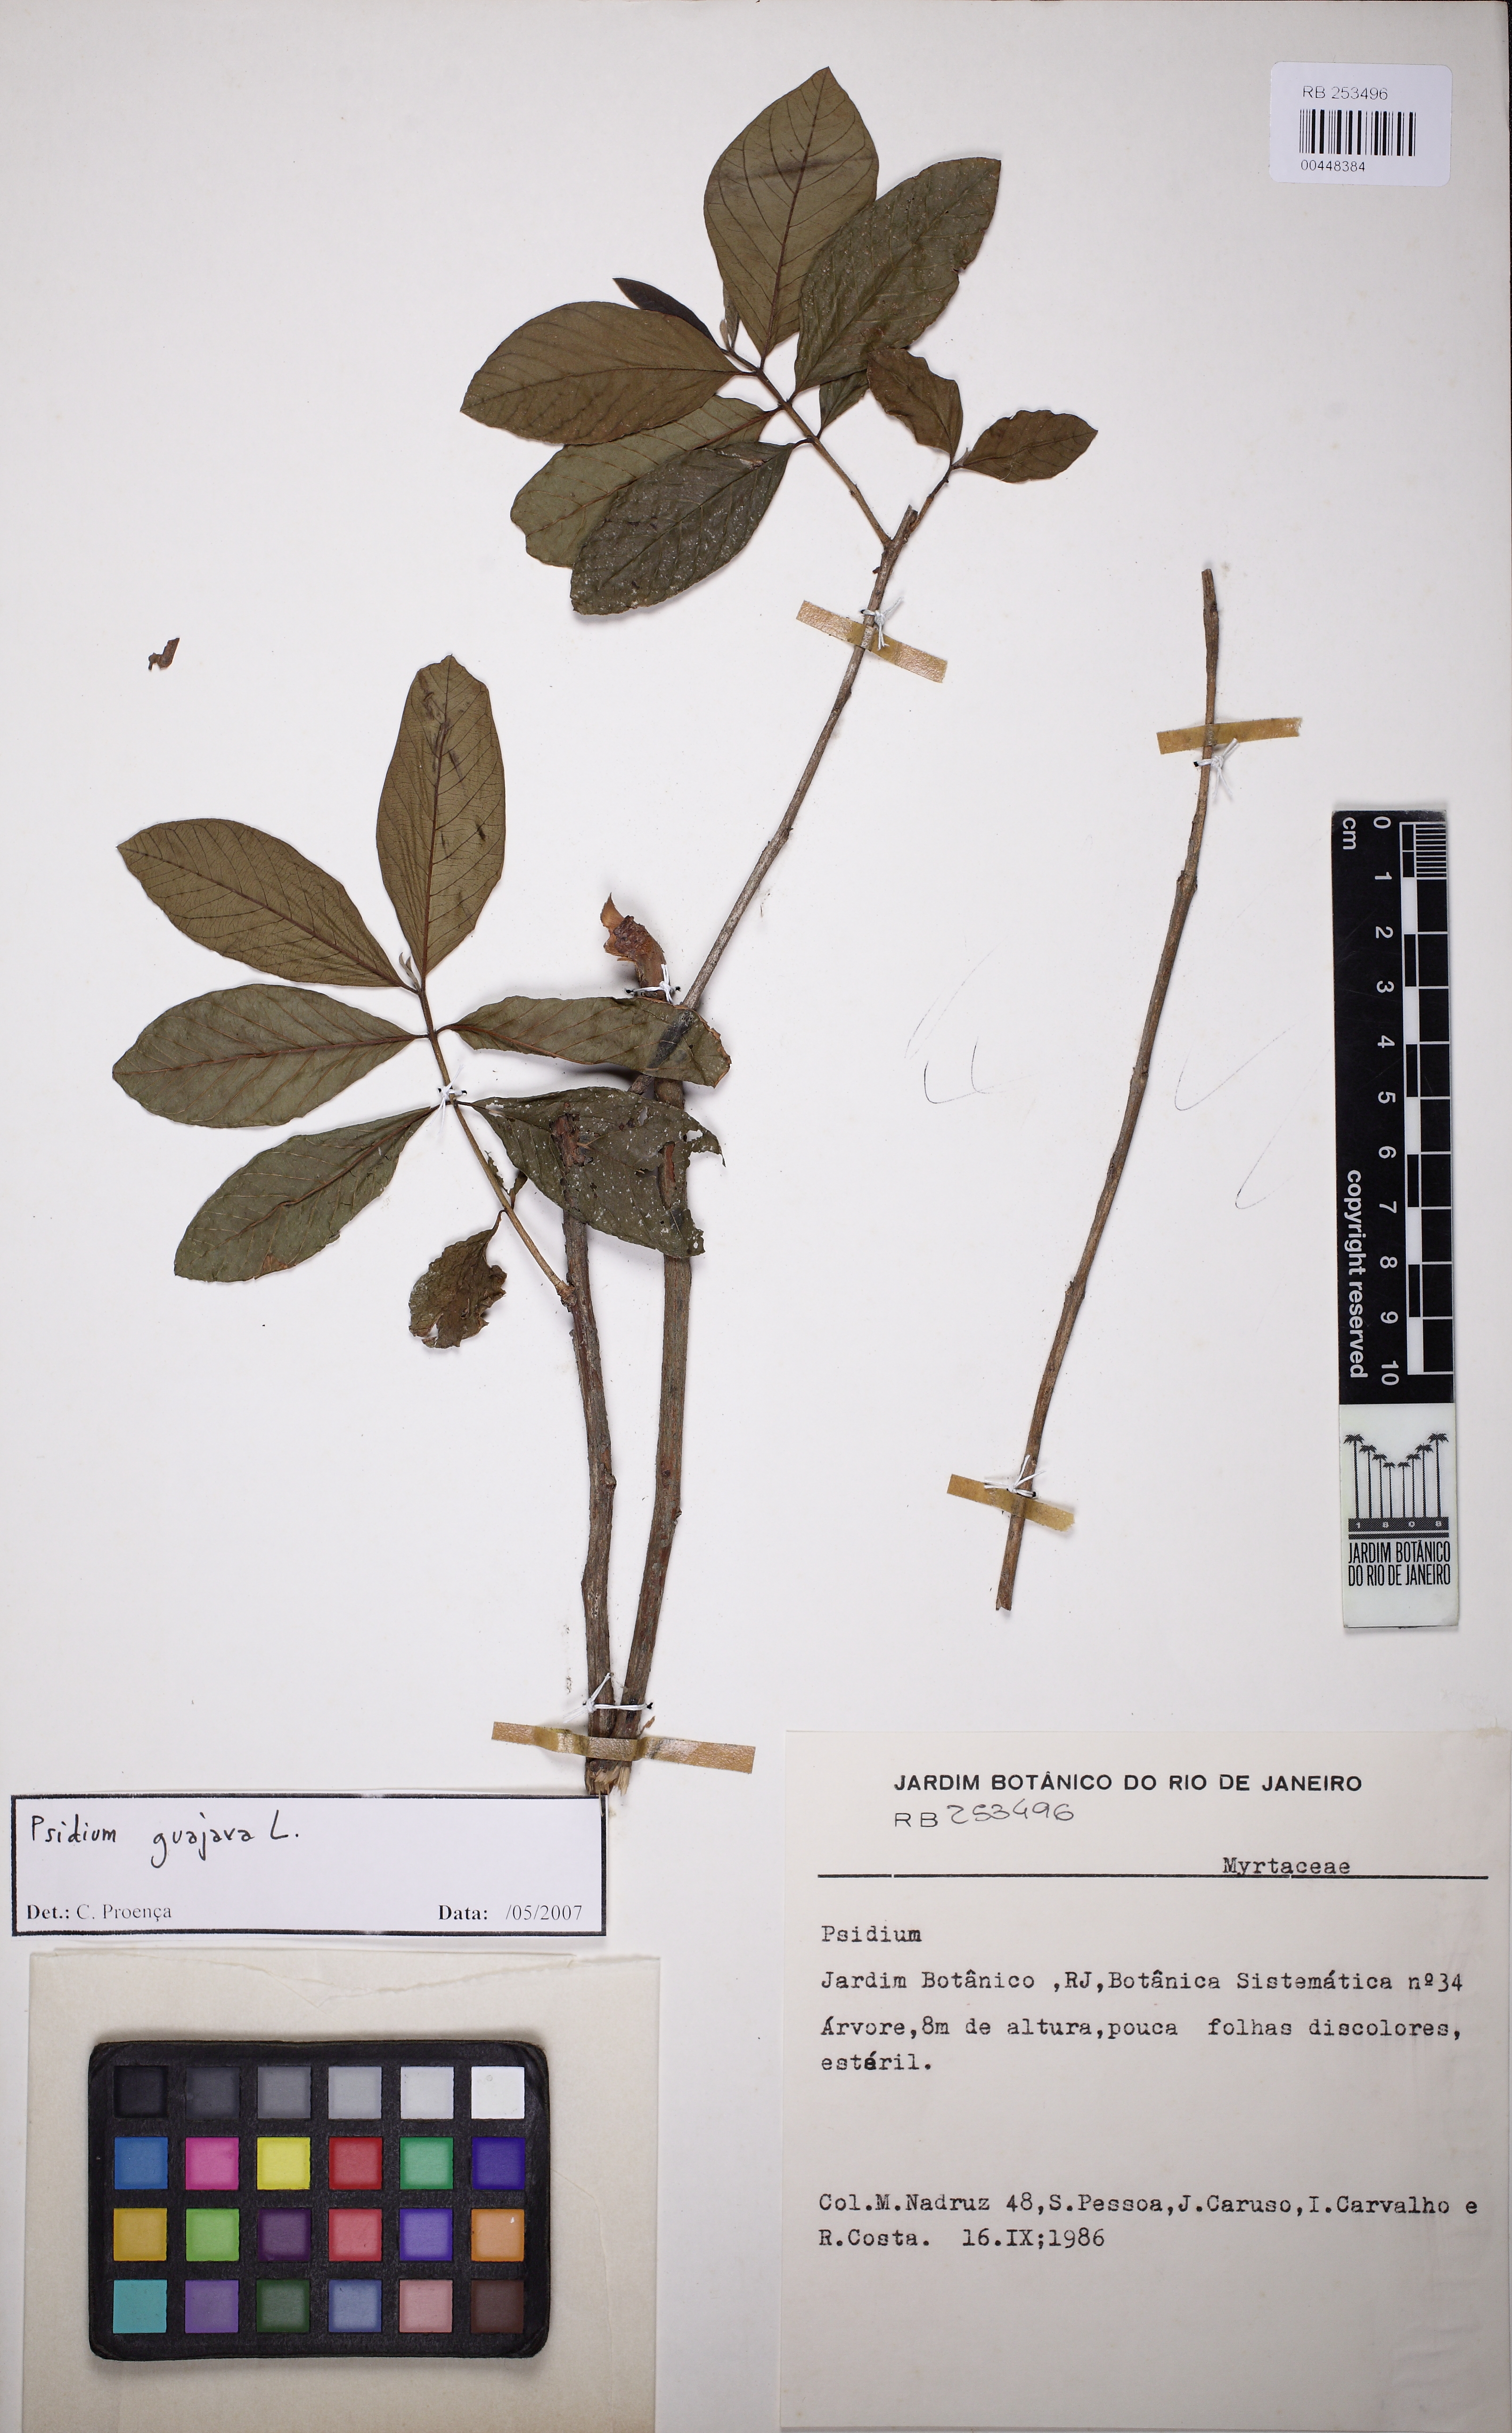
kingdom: Plantae
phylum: Tracheophyta
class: Magnoliopsida
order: Myrtales
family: Myrtaceae
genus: Psidium
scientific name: Psidium guajava
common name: Guava
